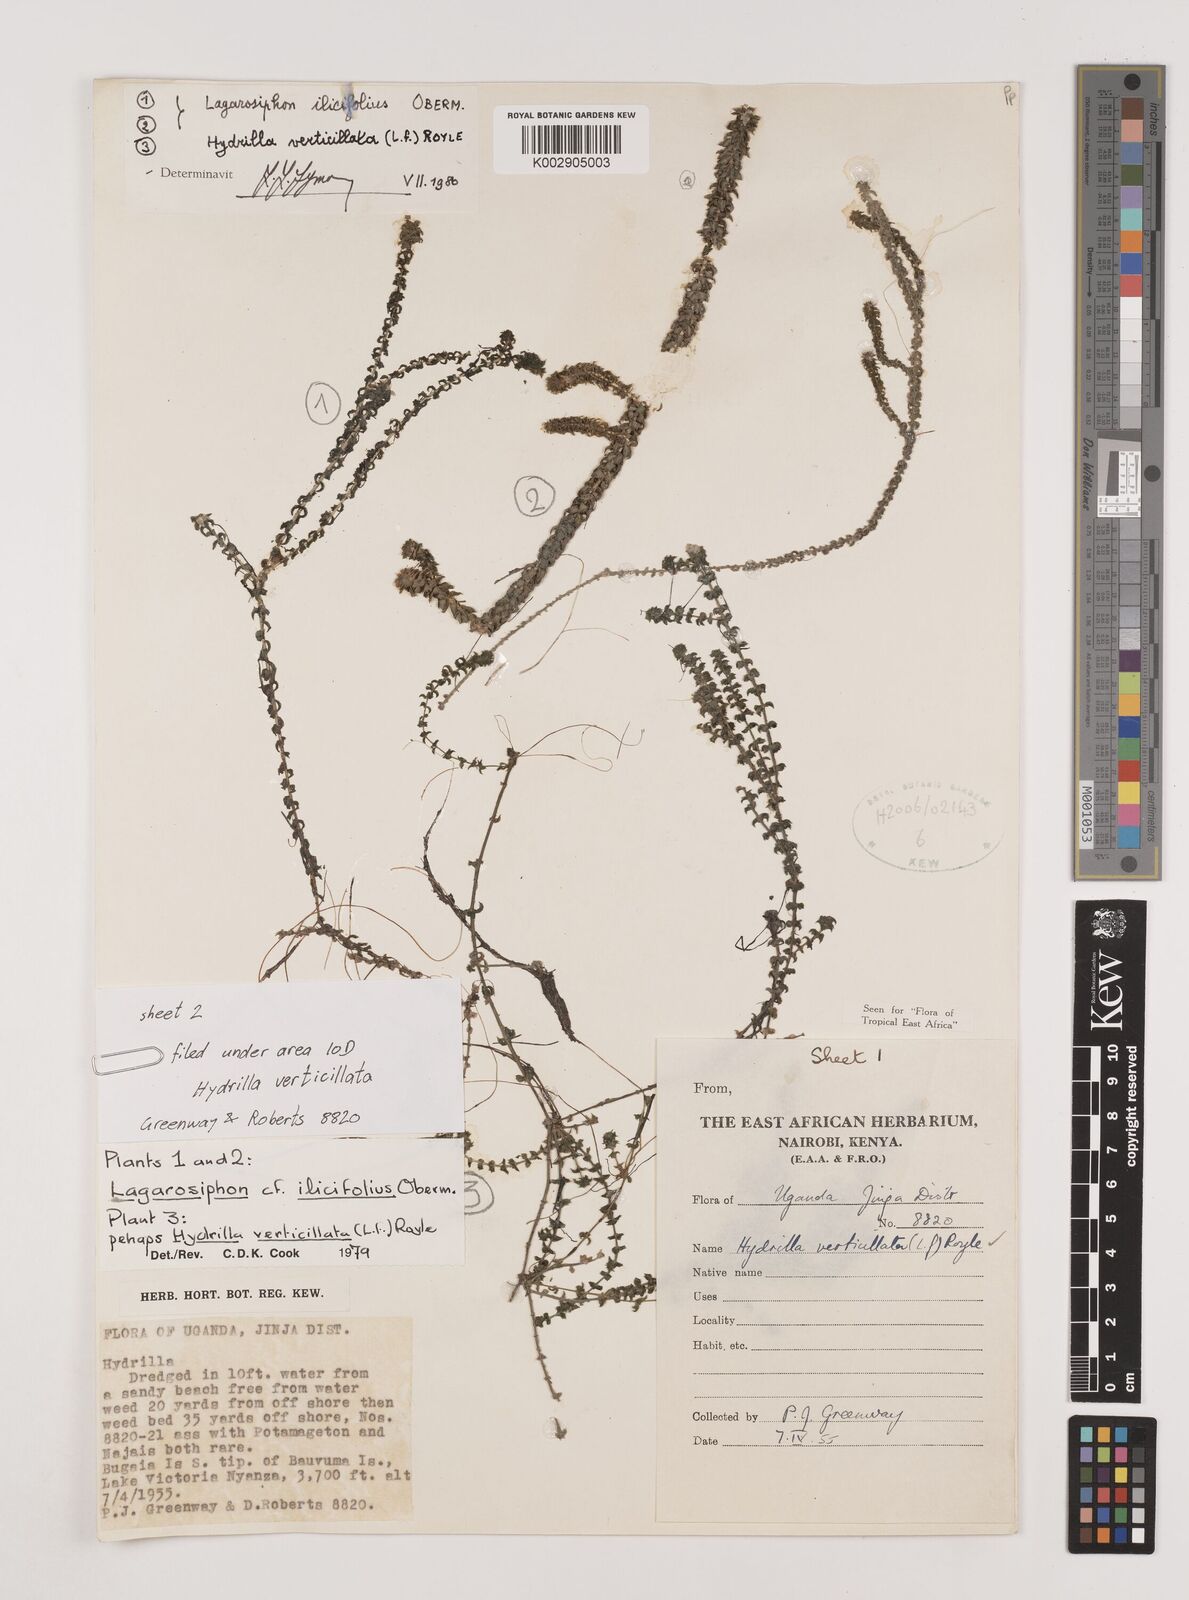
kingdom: Plantae
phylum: Tracheophyta
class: Liliopsida
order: Alismatales
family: Hydrocharitaceae
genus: Lagarosiphon
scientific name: Lagarosiphon ilicifolius
